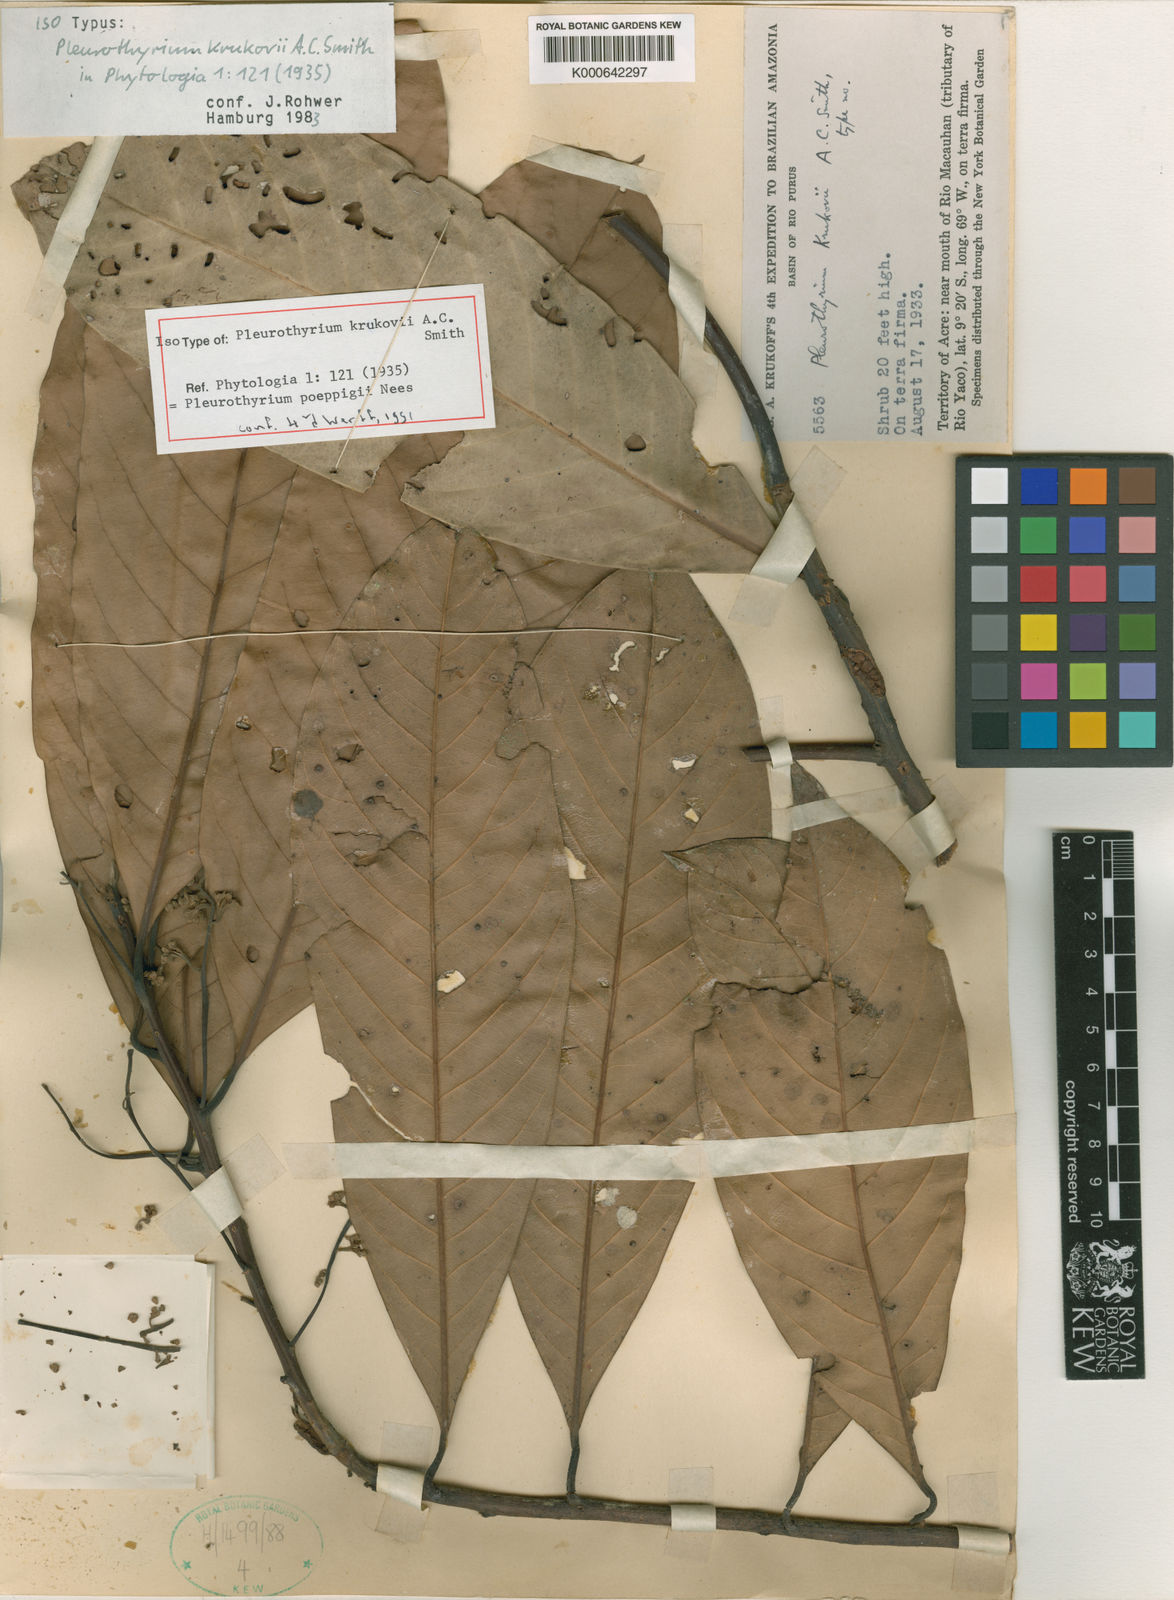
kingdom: Plantae
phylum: Tracheophyta
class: Magnoliopsida
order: Laurales
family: Lauraceae
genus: Pleurothyrium
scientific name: Pleurothyrium poeppigii
